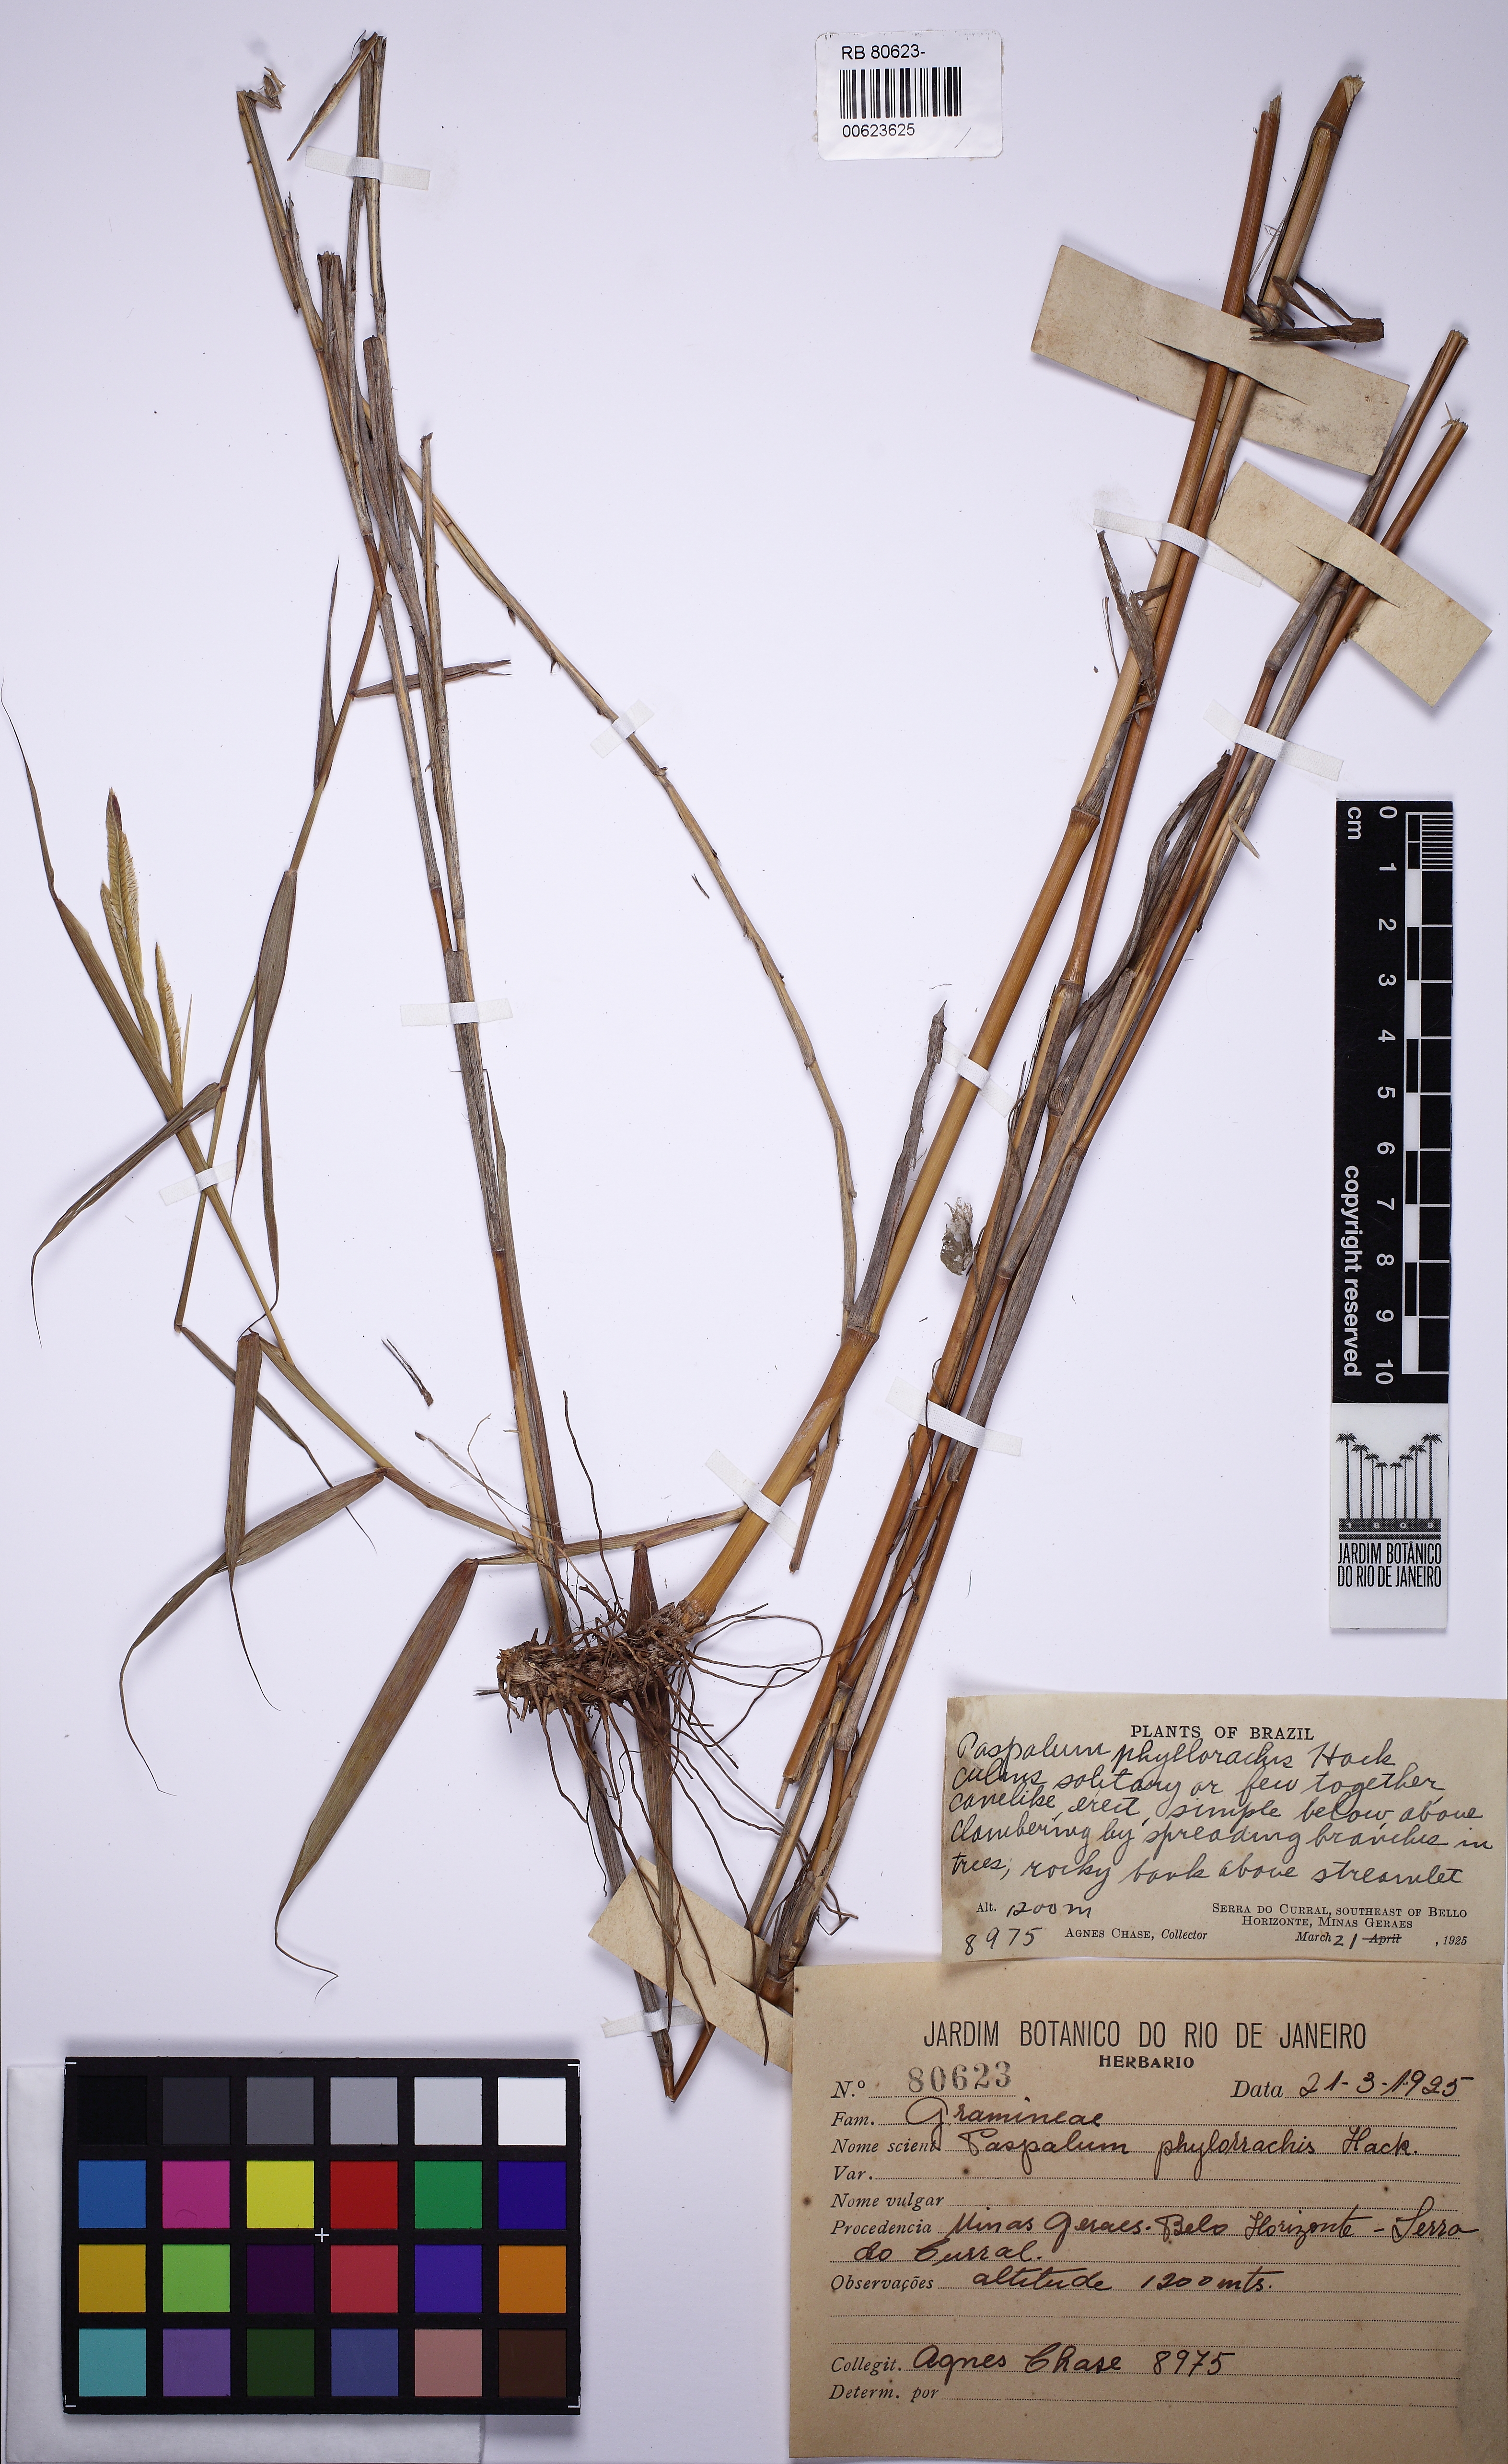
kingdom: Plantae
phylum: Tracheophyta
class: Liliopsida
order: Poales
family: Poaceae
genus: Paspalum
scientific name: Paspalum phyllorhachis
